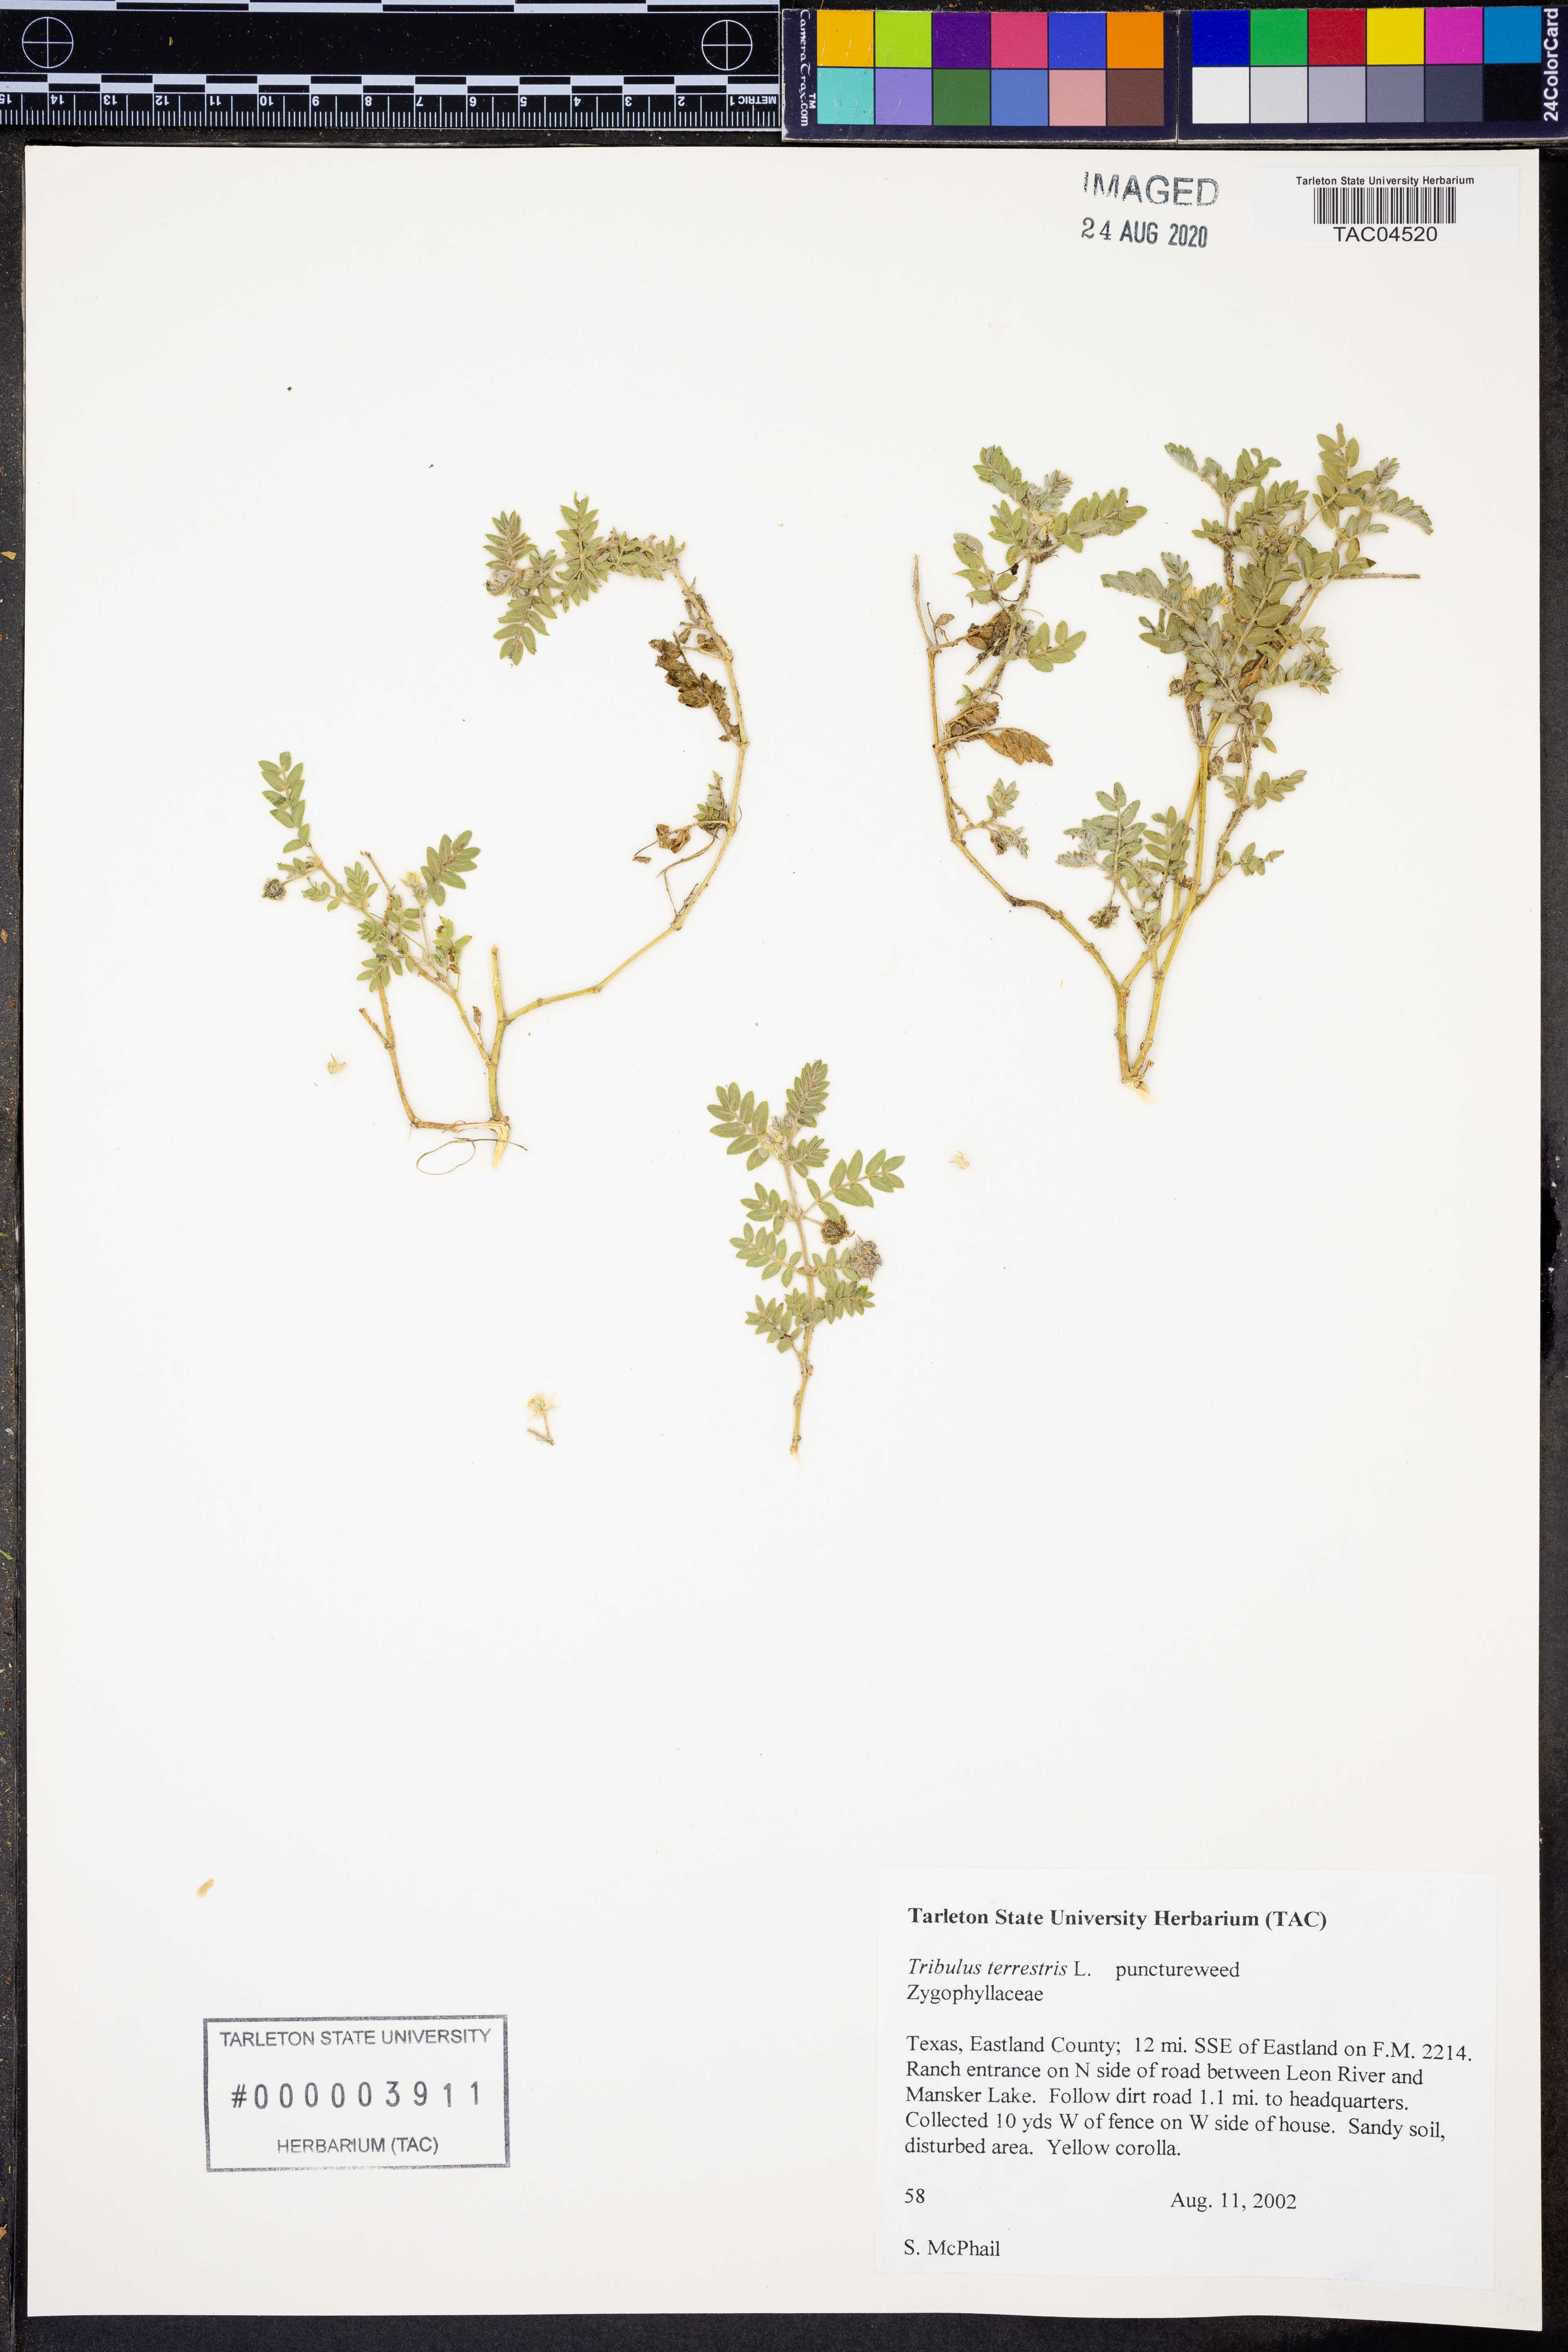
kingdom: Plantae
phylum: Tracheophyta
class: Magnoliopsida
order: Zygophyllales
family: Zygophyllaceae
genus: Tribulus
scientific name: Tribulus terrestris
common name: Puncturevine
